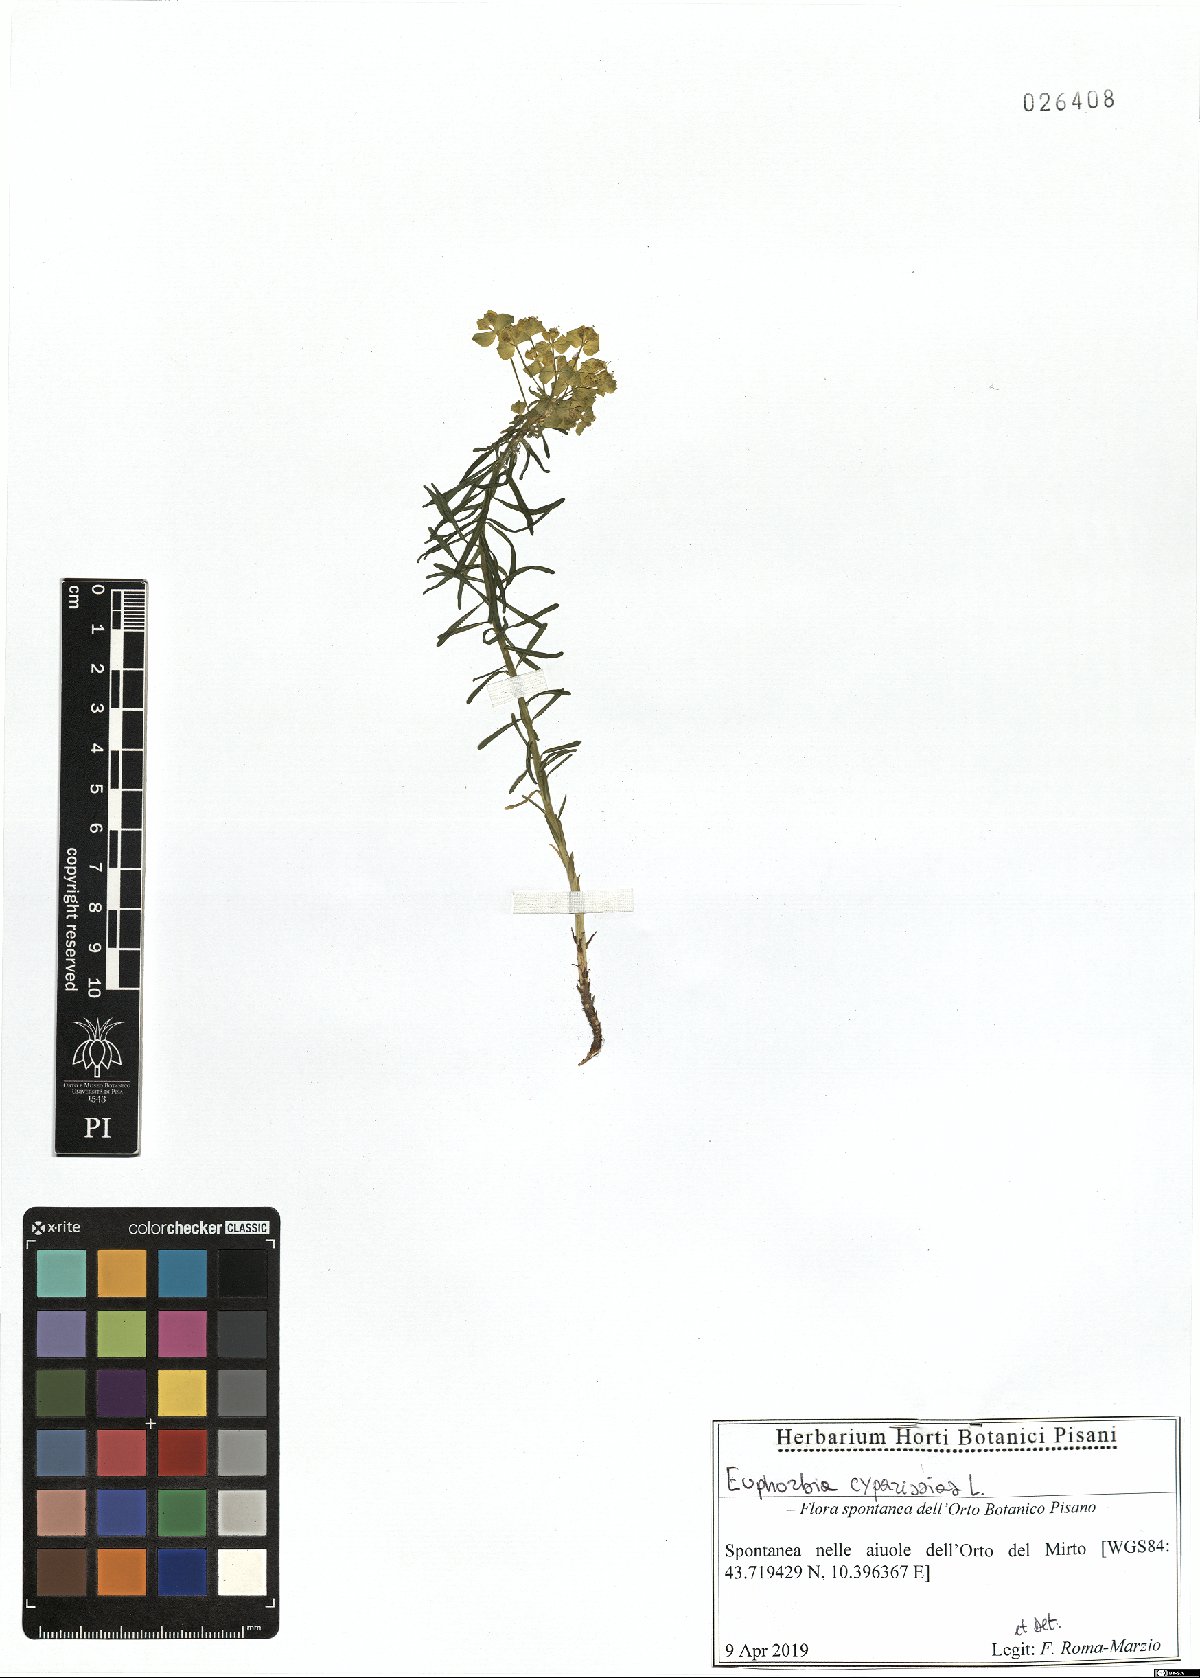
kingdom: Plantae
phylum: Tracheophyta
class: Magnoliopsida
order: Malpighiales
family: Euphorbiaceae
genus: Euphorbia
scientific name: Euphorbia cyparissias
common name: Cypress spurge
